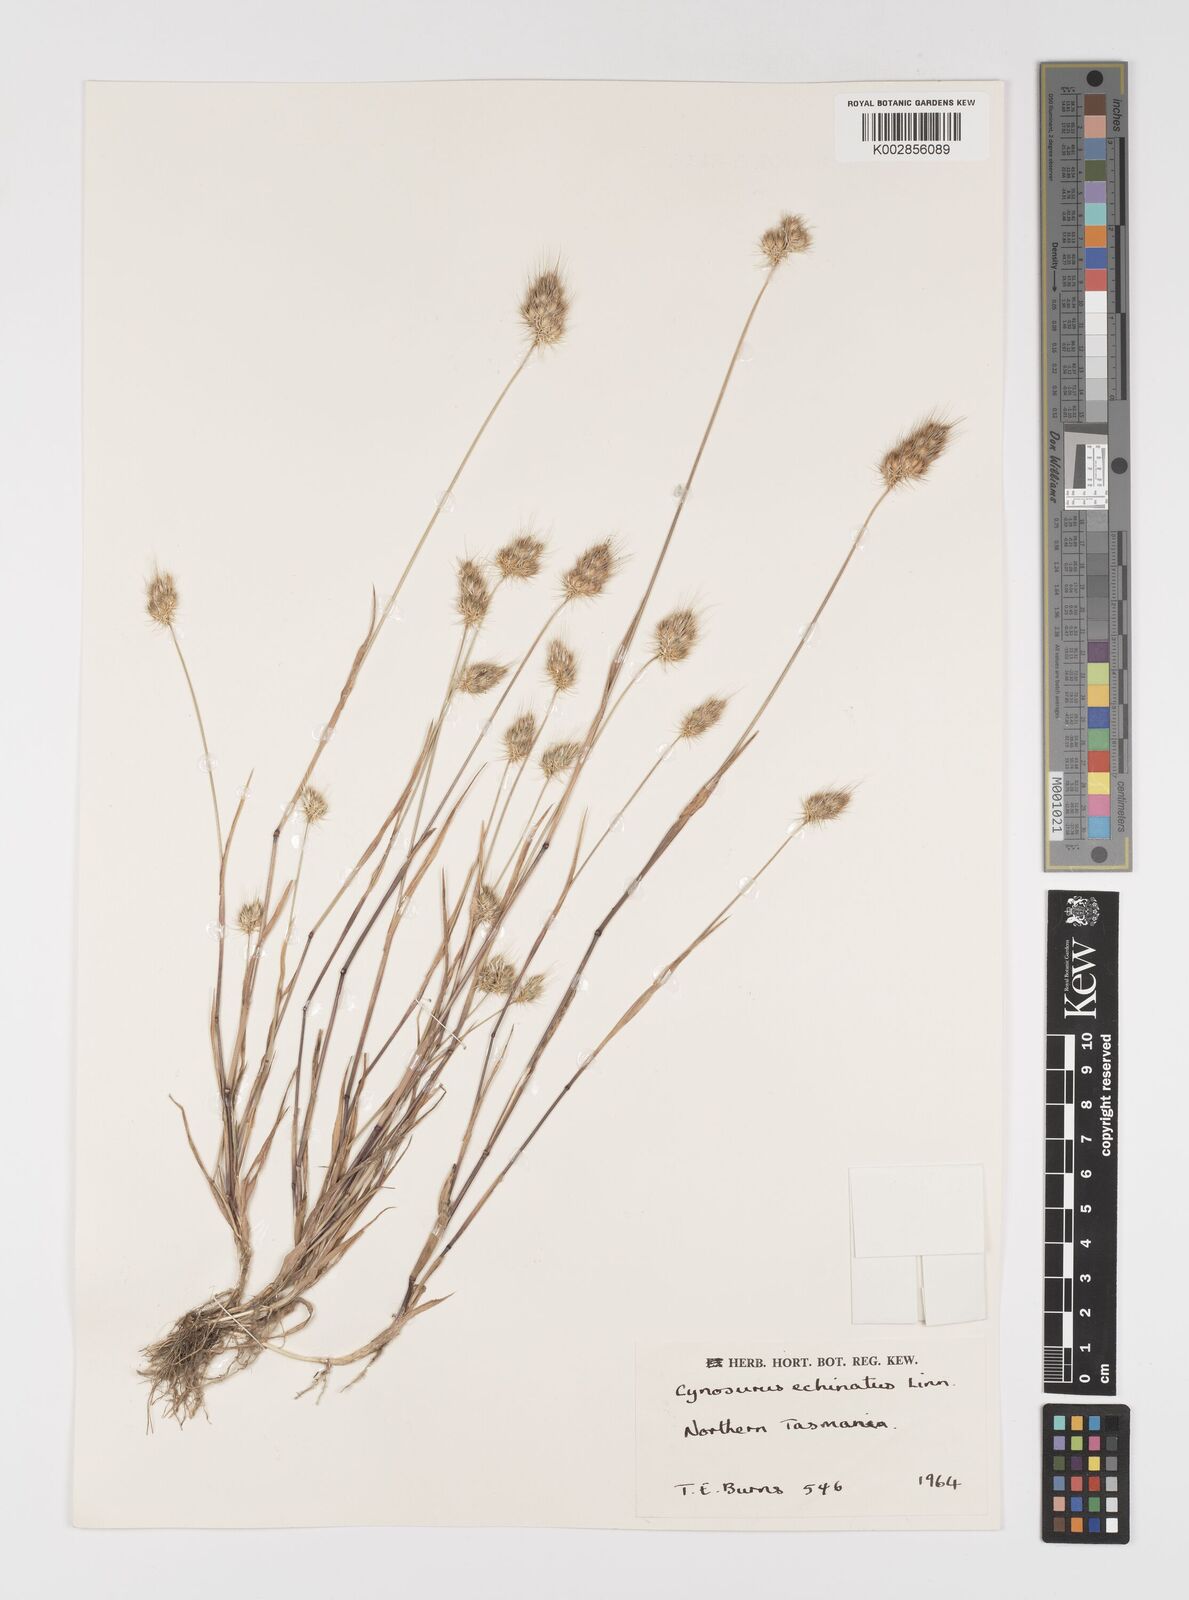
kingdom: Plantae
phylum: Tracheophyta
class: Liliopsida
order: Poales
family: Poaceae
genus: Cynosurus
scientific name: Cynosurus echinatus
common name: Rough dog's-tail
